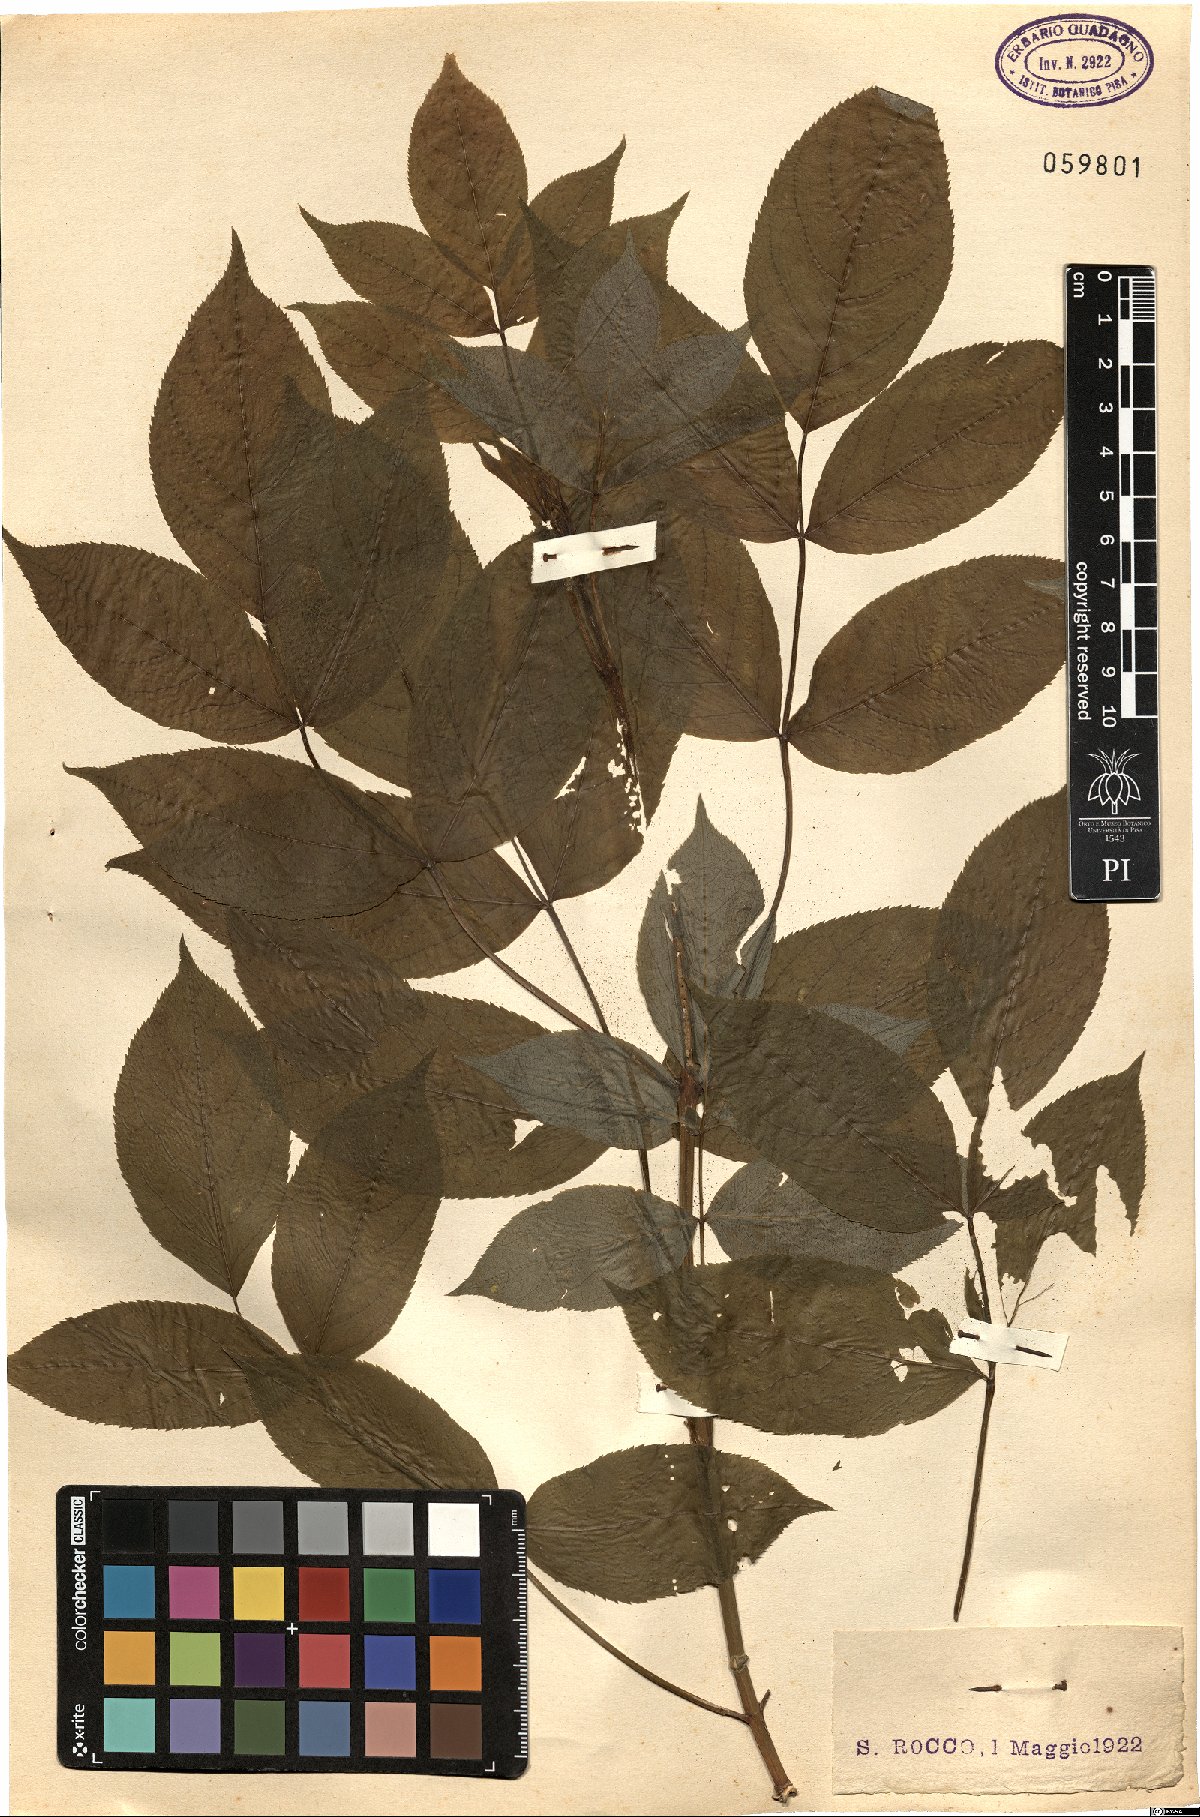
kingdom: Plantae
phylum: Tracheophyta
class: Magnoliopsida
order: Dipsacales
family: Viburnaceae
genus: Sambucus
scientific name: Sambucus nigra
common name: Elder
